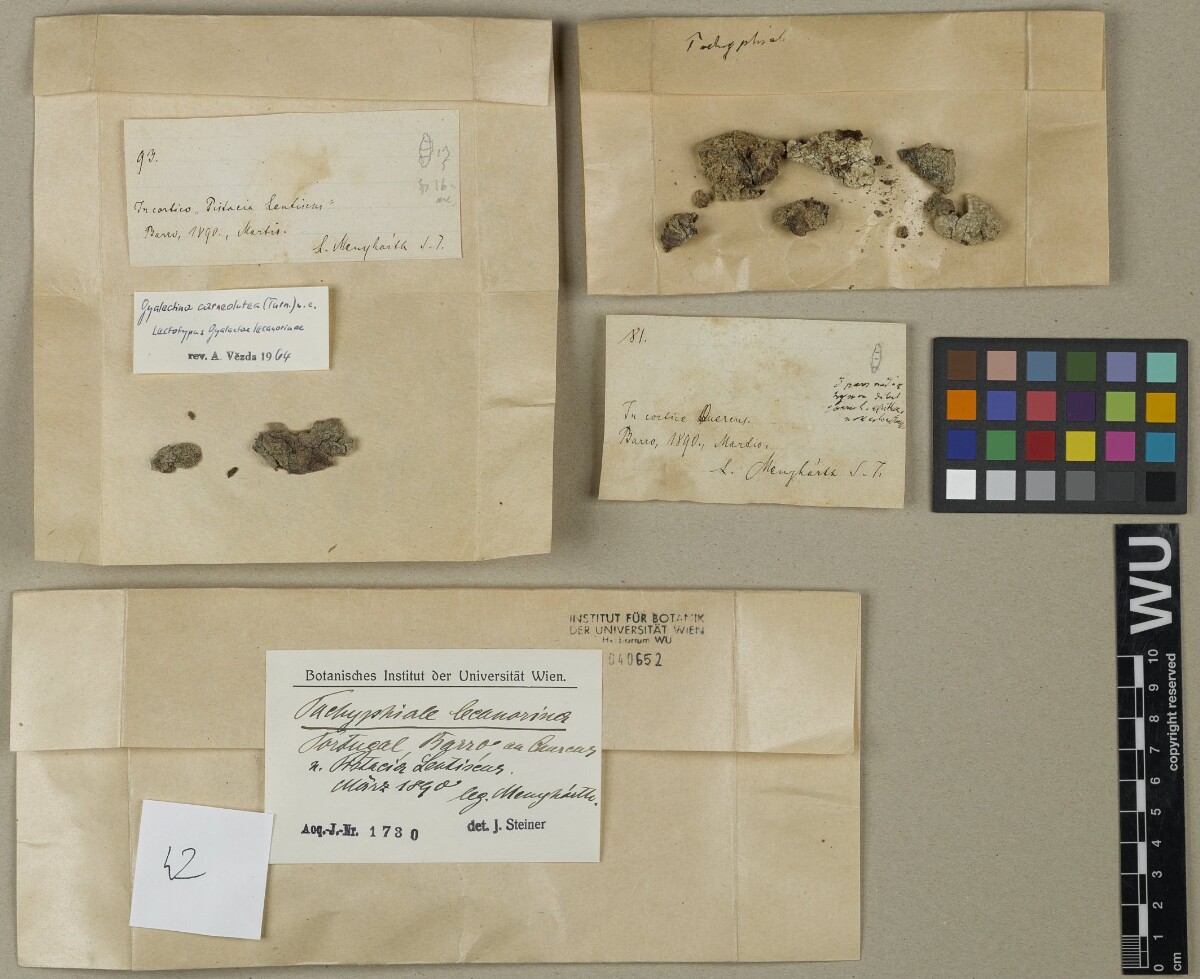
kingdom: Fungi
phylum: Ascomycota
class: Lecanoromycetes
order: Gyalectales
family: Gyalectaceae
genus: Pachyphiale
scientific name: Pachyphiale
